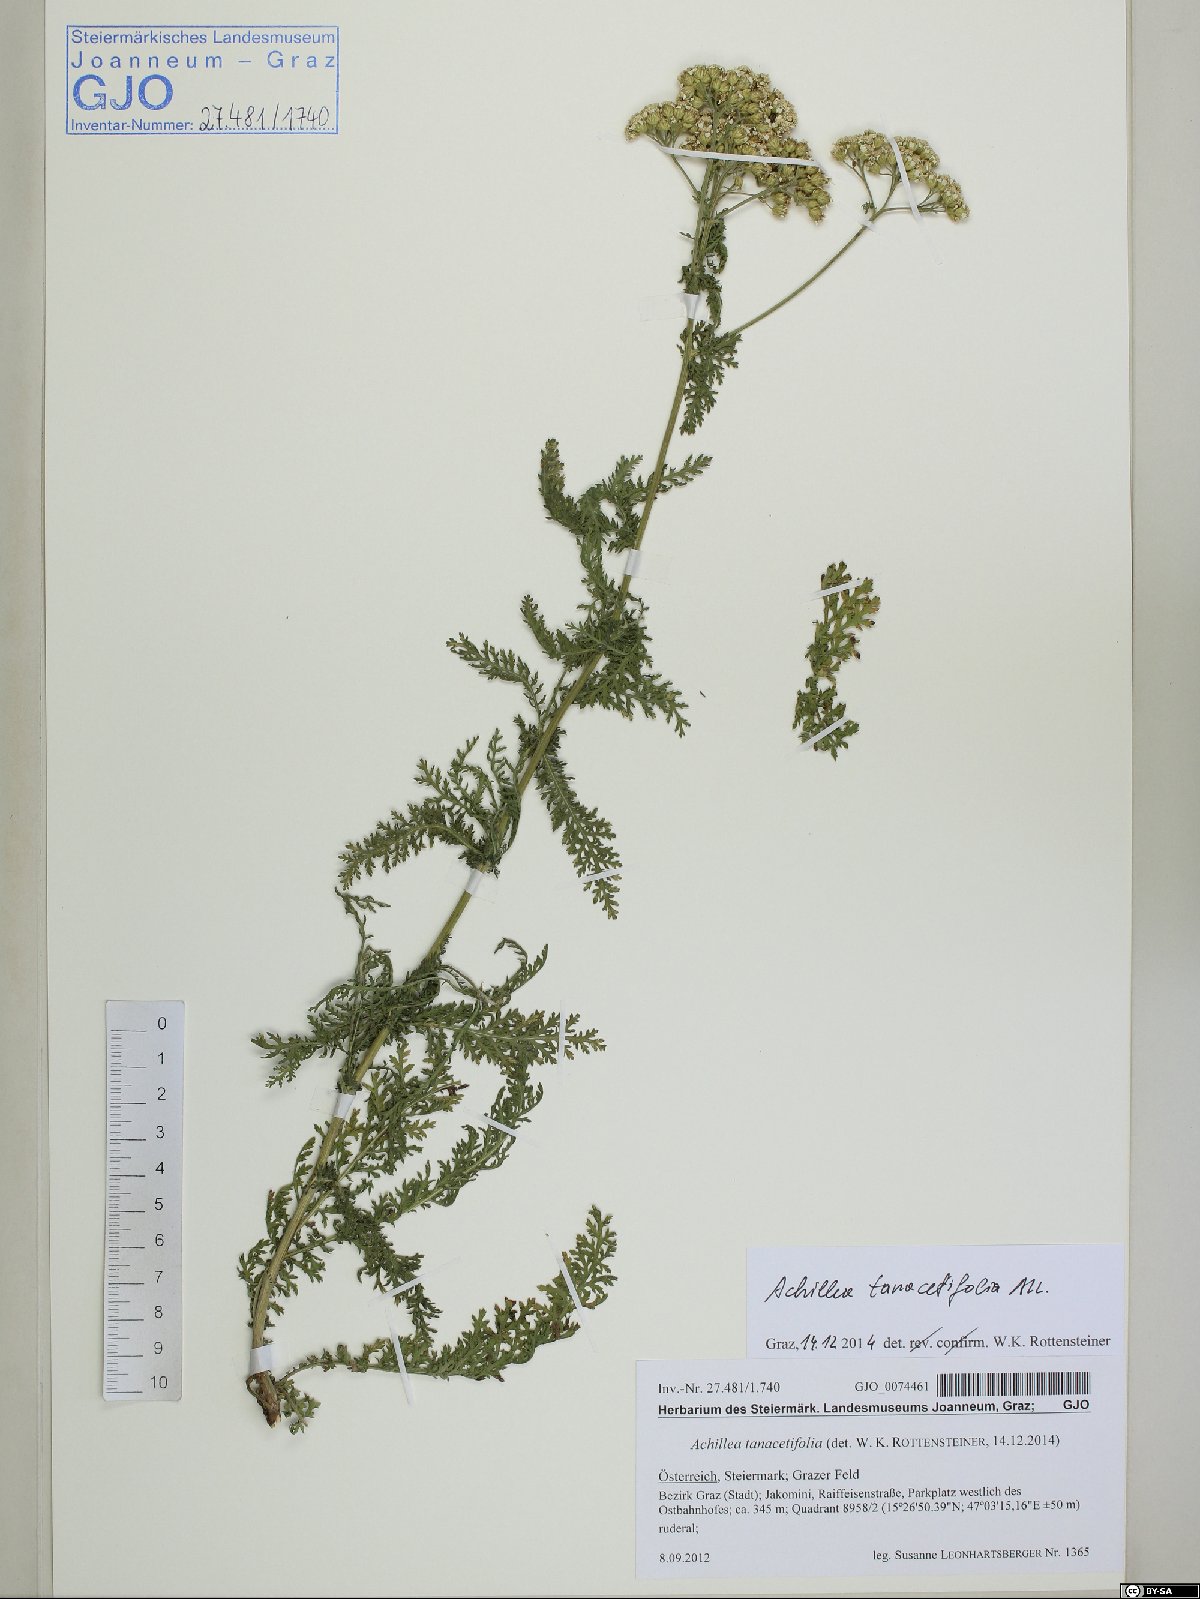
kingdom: Plantae
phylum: Tracheophyta
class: Magnoliopsida
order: Asterales
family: Asteraceae
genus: Achillea
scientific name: Achillea distans
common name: Tall yarrow
